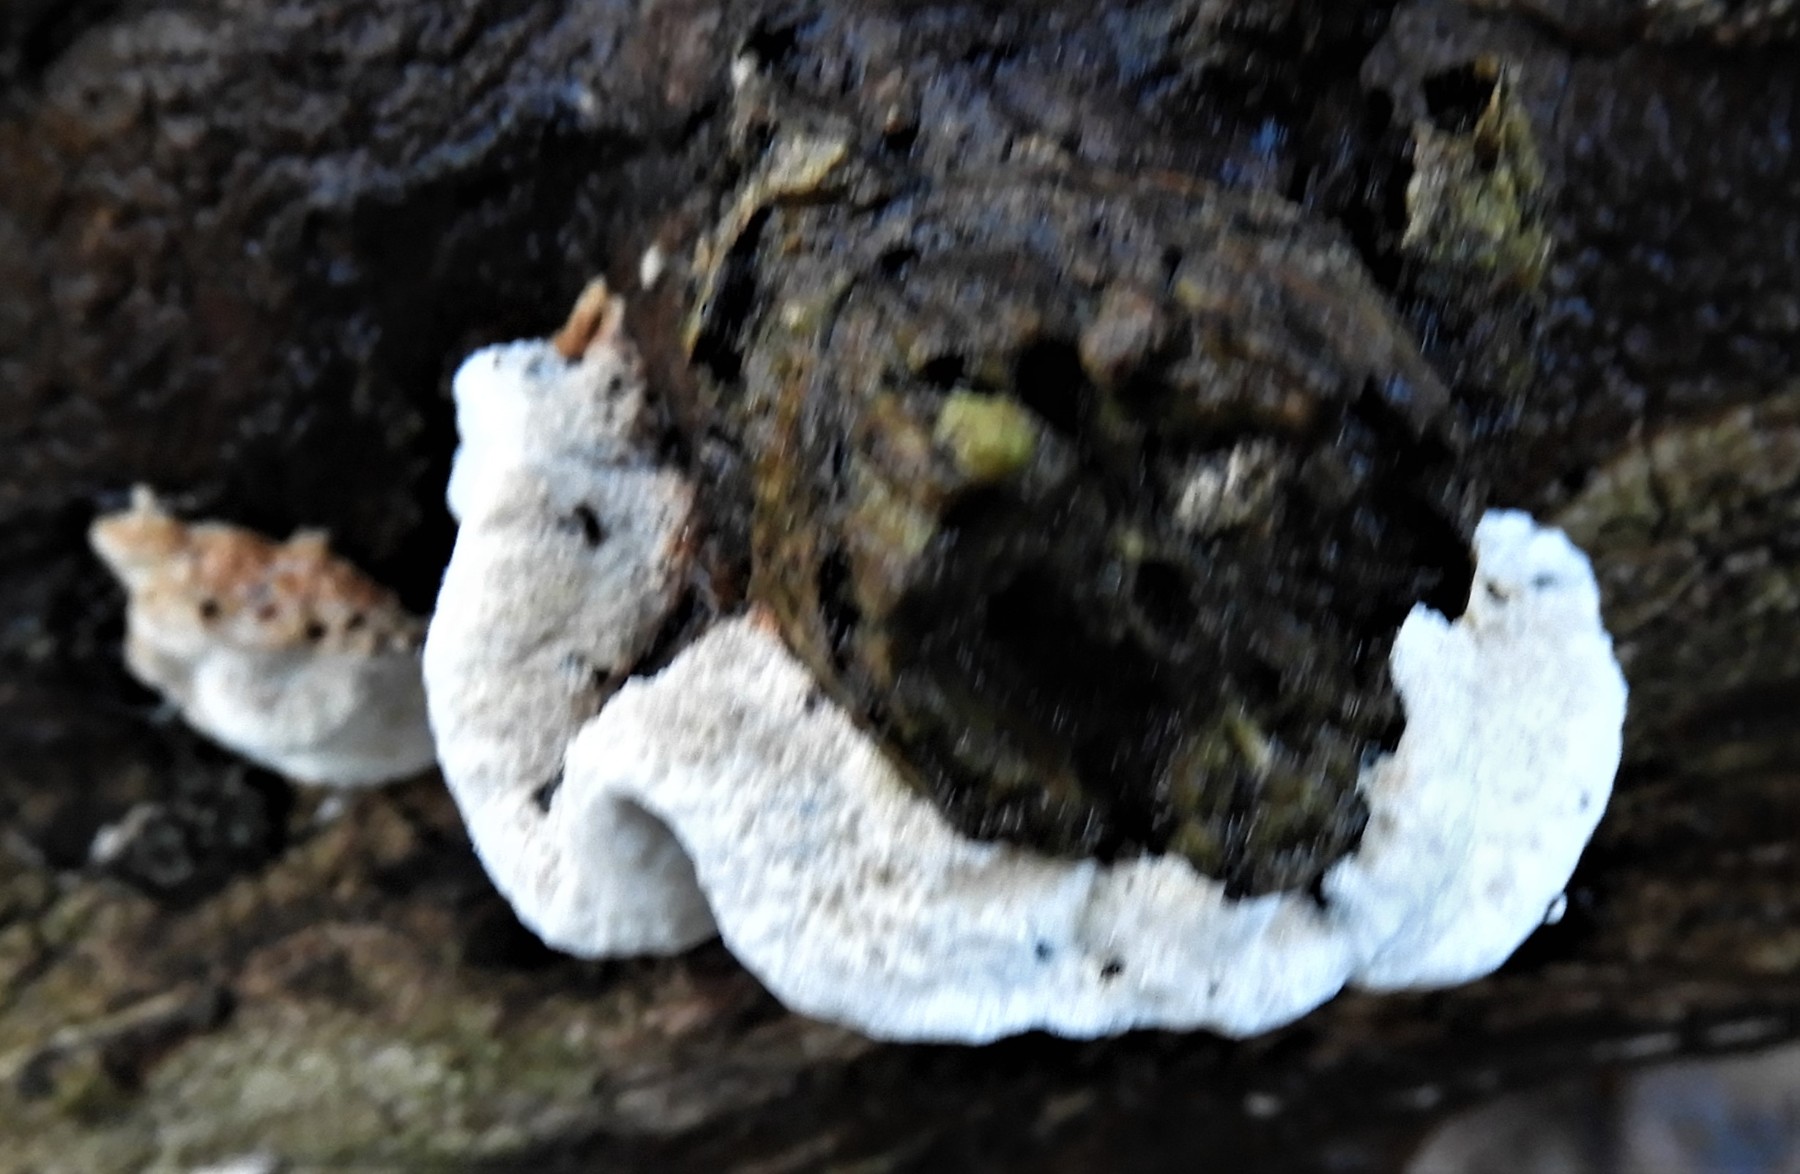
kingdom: Fungi
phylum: Basidiomycota
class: Agaricomycetes
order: Polyporales
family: Incrustoporiaceae
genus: Skeletocutis
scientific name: Skeletocutis nemoralis
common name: stor krystalporesvamp
